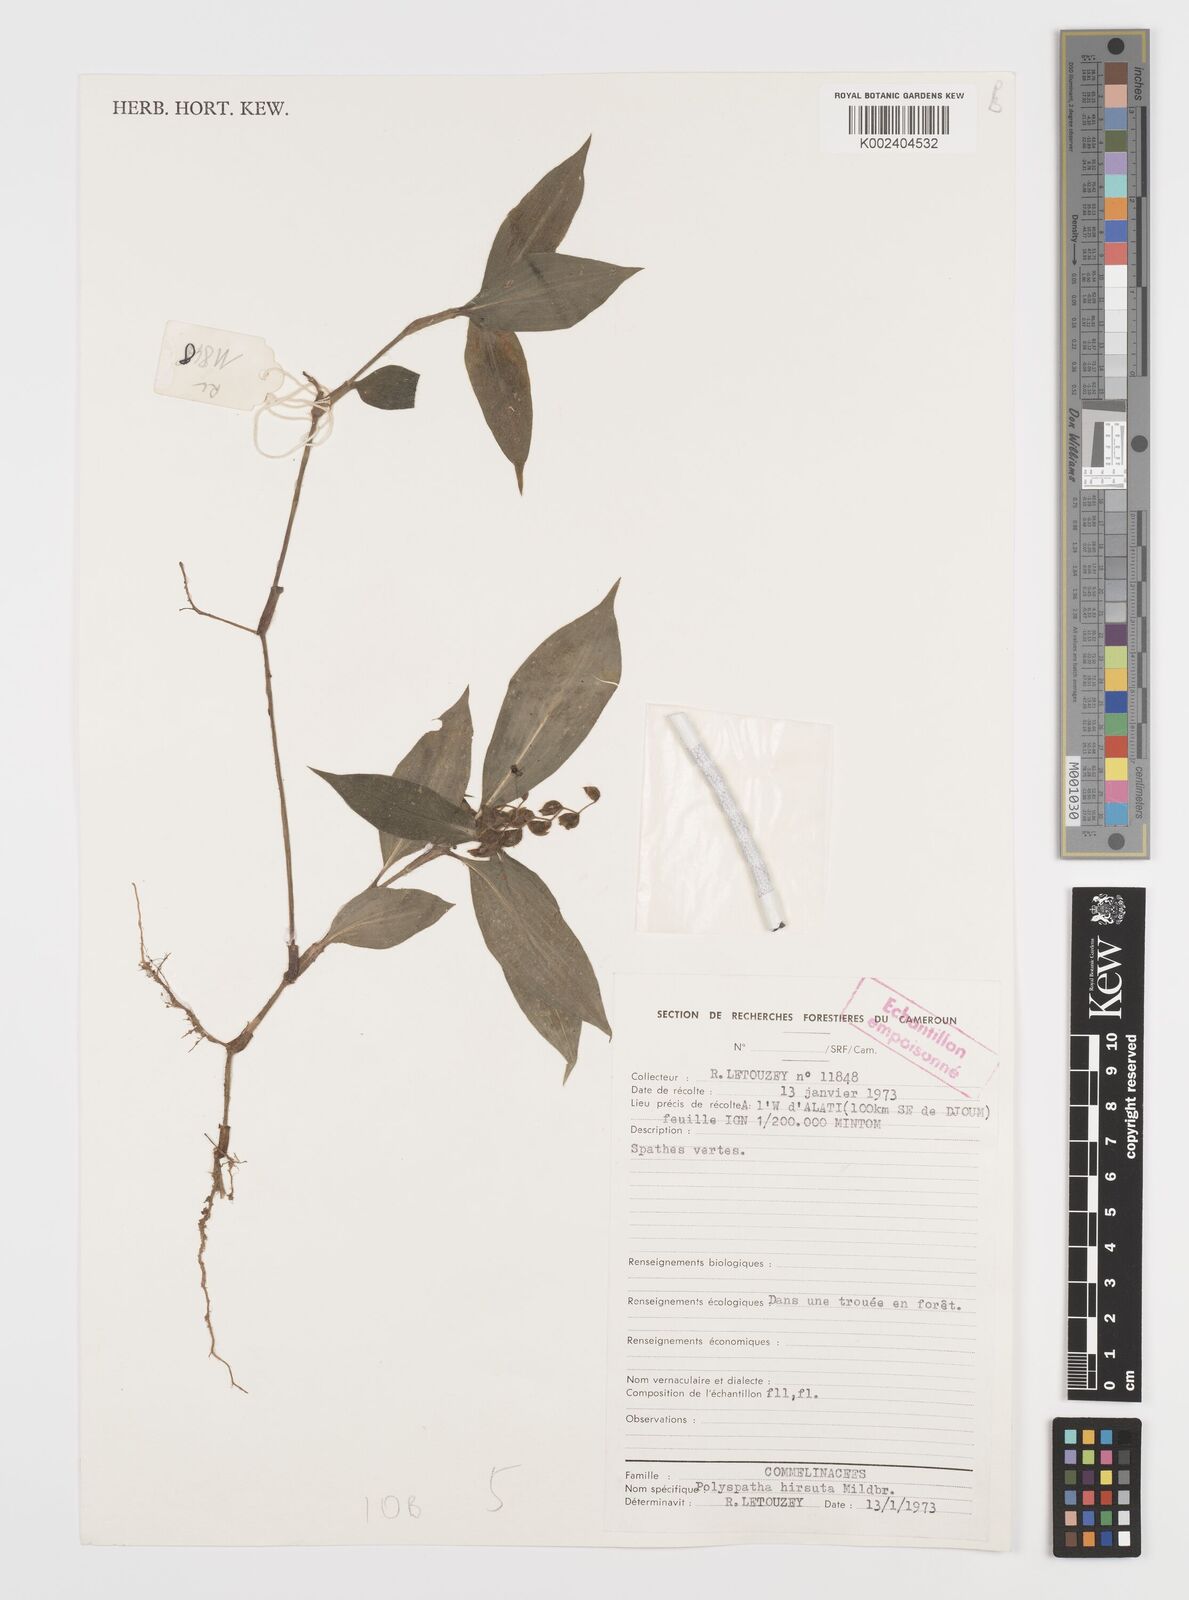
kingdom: Plantae
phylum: Tracheophyta
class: Liliopsida
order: Commelinales
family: Commelinaceae
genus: Polyspatha
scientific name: Polyspatha hirsuta
